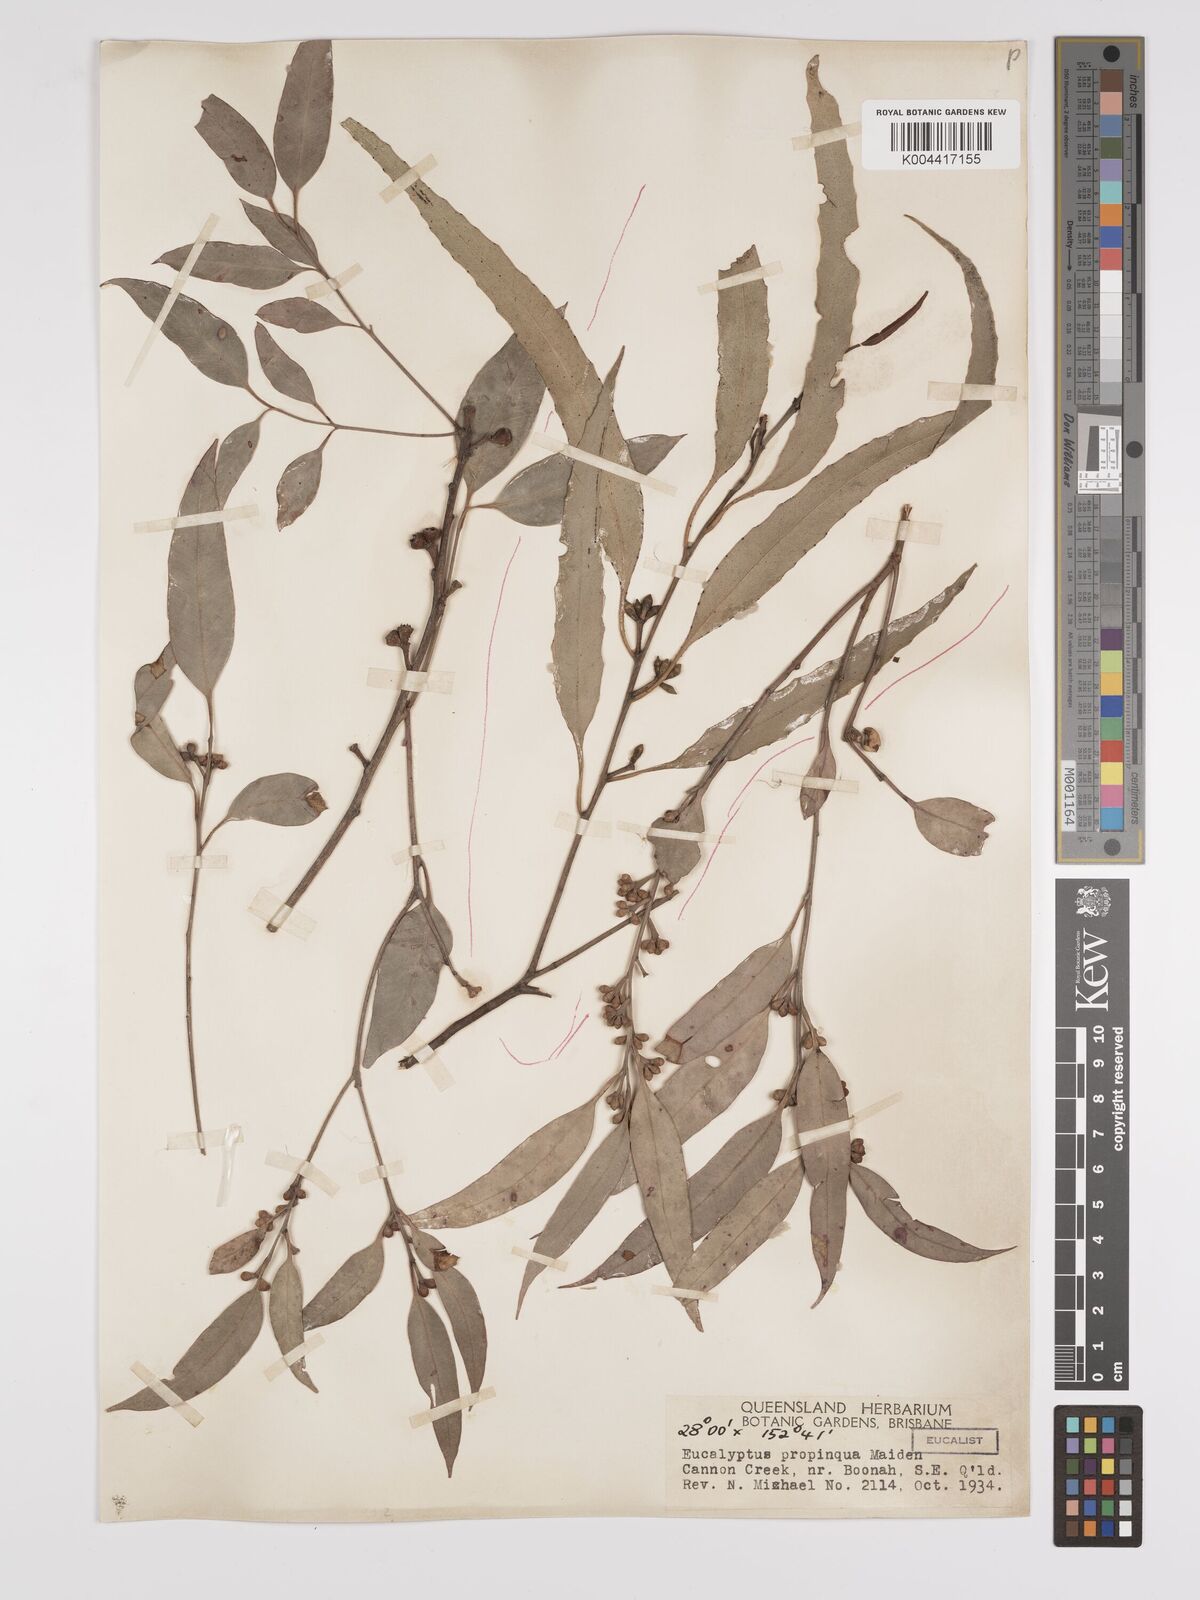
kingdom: Plantae
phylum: Tracheophyta
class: Magnoliopsida
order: Myrtales
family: Myrtaceae
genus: Eucalyptus
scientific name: Eucalyptus propinqua
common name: Grey-gum
